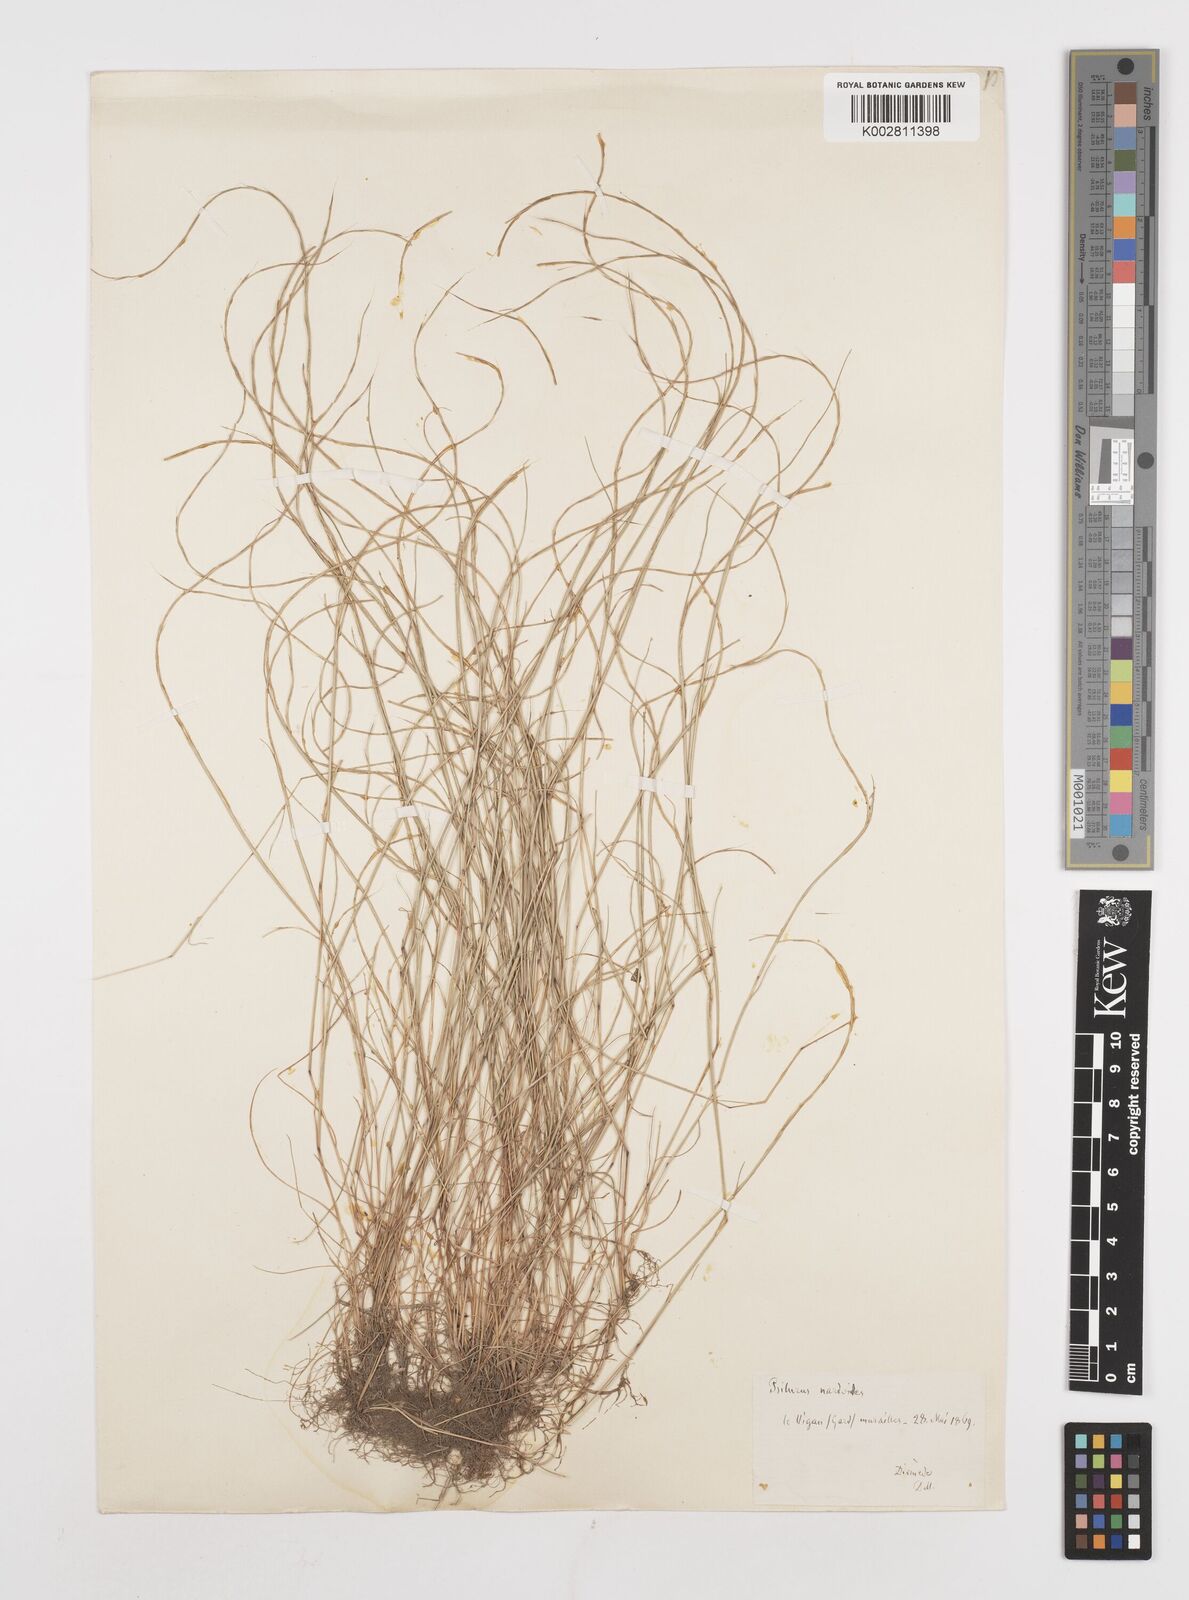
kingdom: Plantae
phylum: Tracheophyta
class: Liliopsida
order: Poales
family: Poaceae
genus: Festuca
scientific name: Festuca incurva
